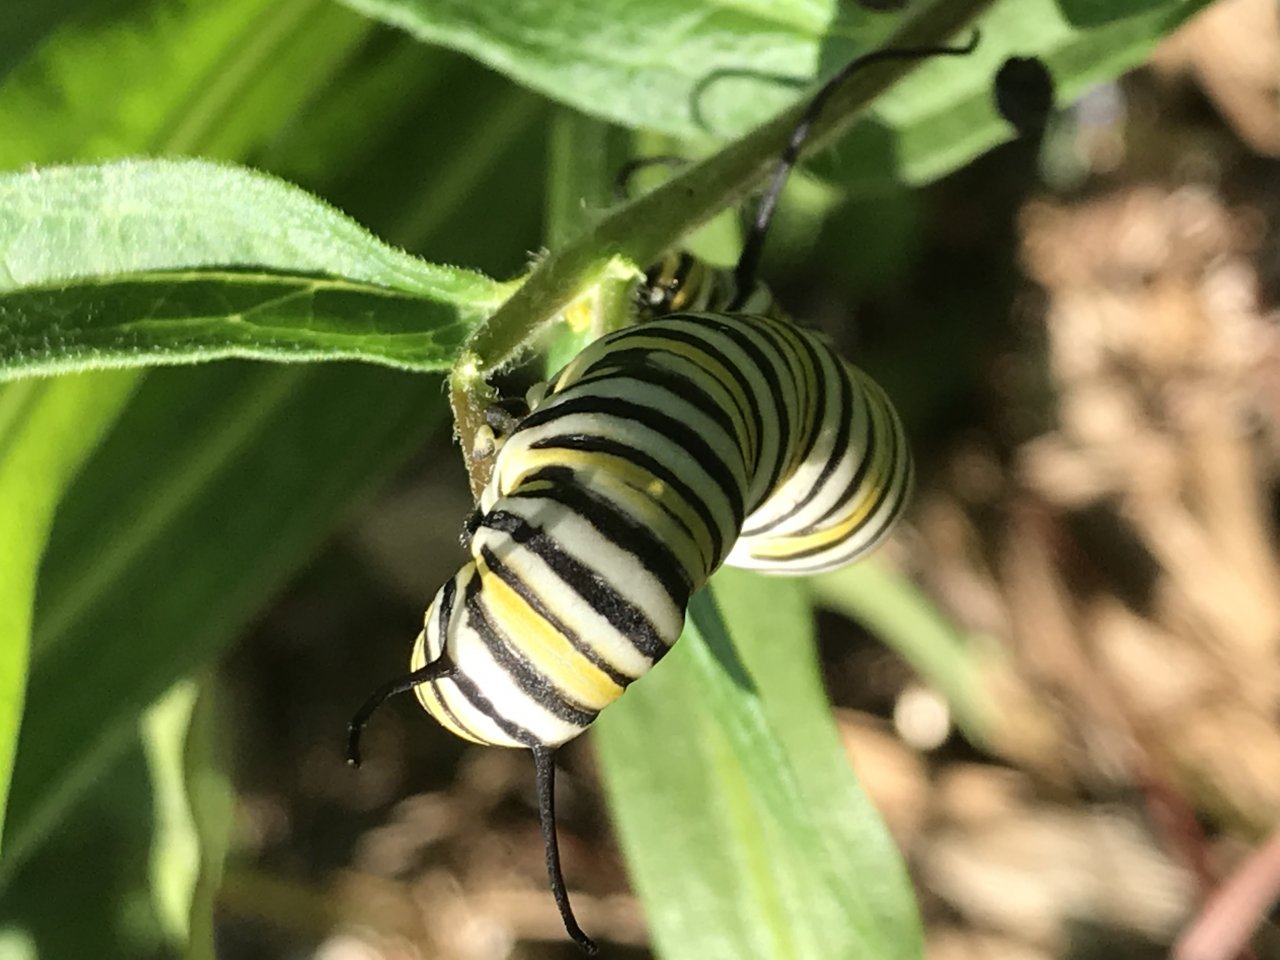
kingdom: Animalia
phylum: Arthropoda
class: Insecta
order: Lepidoptera
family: Nymphalidae
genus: Danaus
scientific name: Danaus plexippus
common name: Monarch
